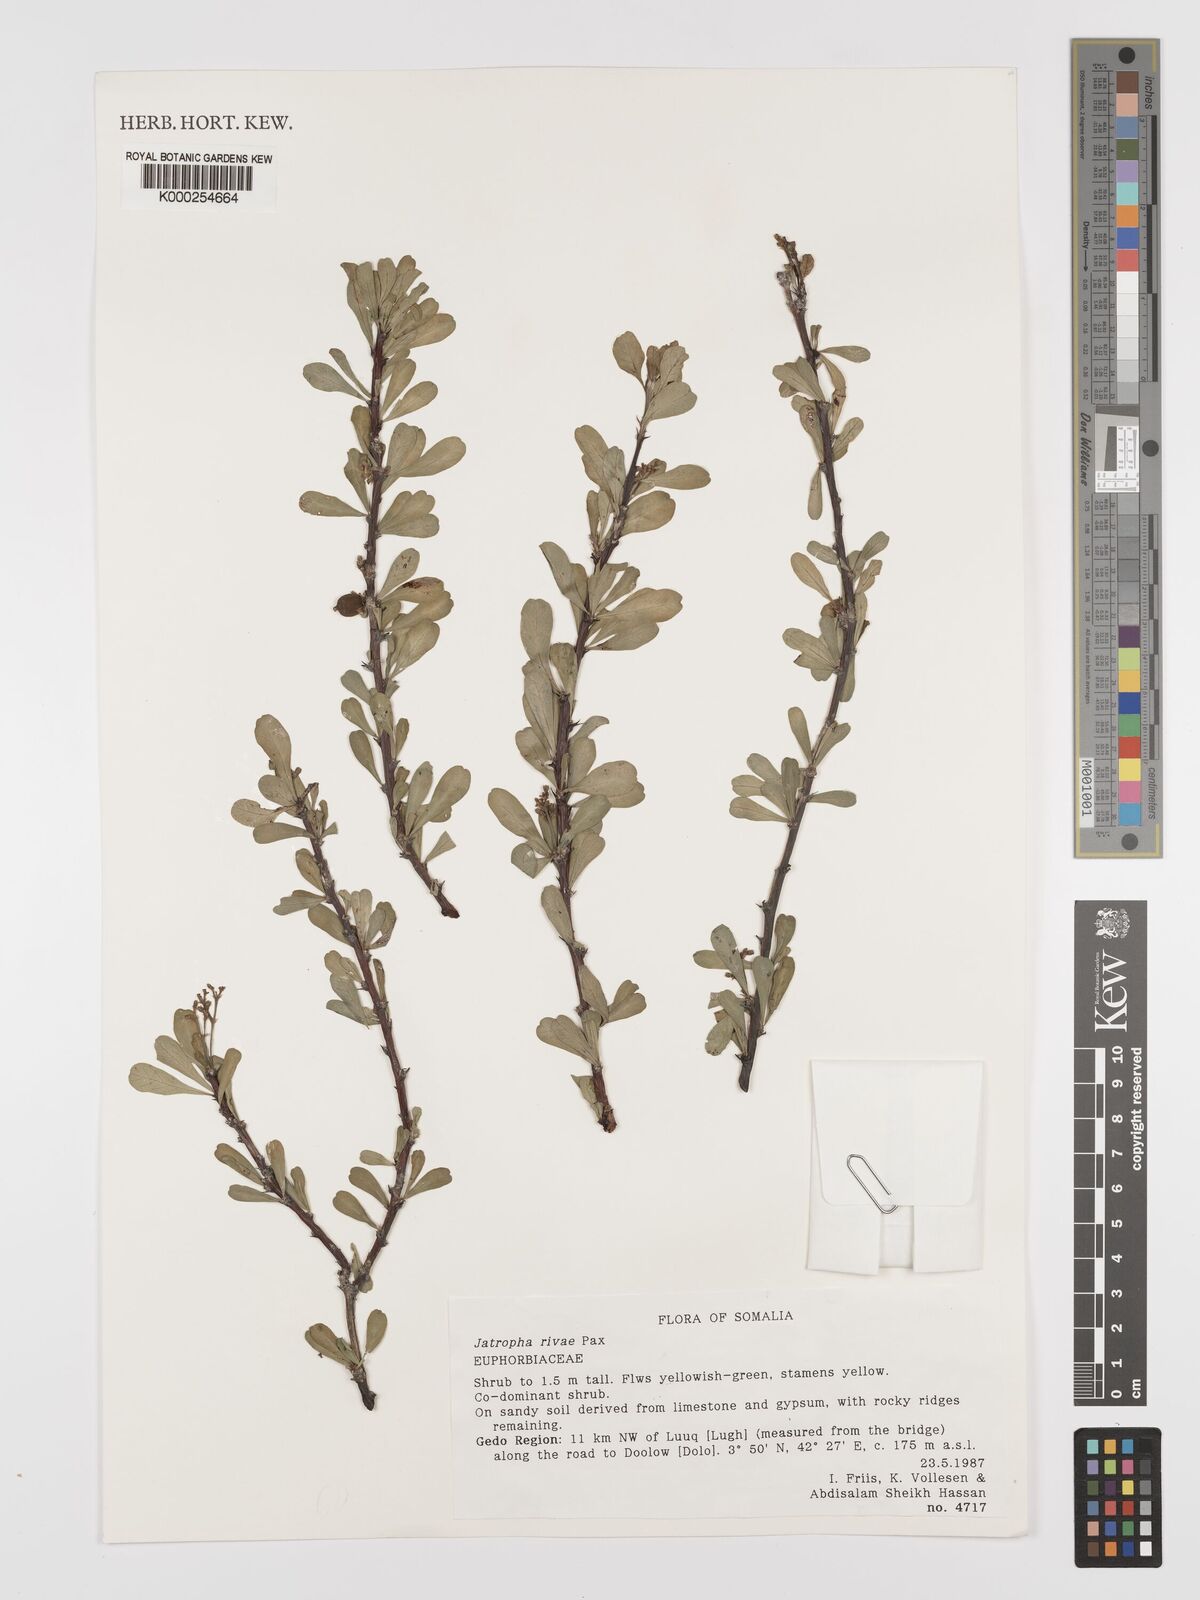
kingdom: Plantae
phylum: Tracheophyta
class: Magnoliopsida
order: Malpighiales
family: Euphorbiaceae
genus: Jatropha
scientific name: Jatropha rivae
